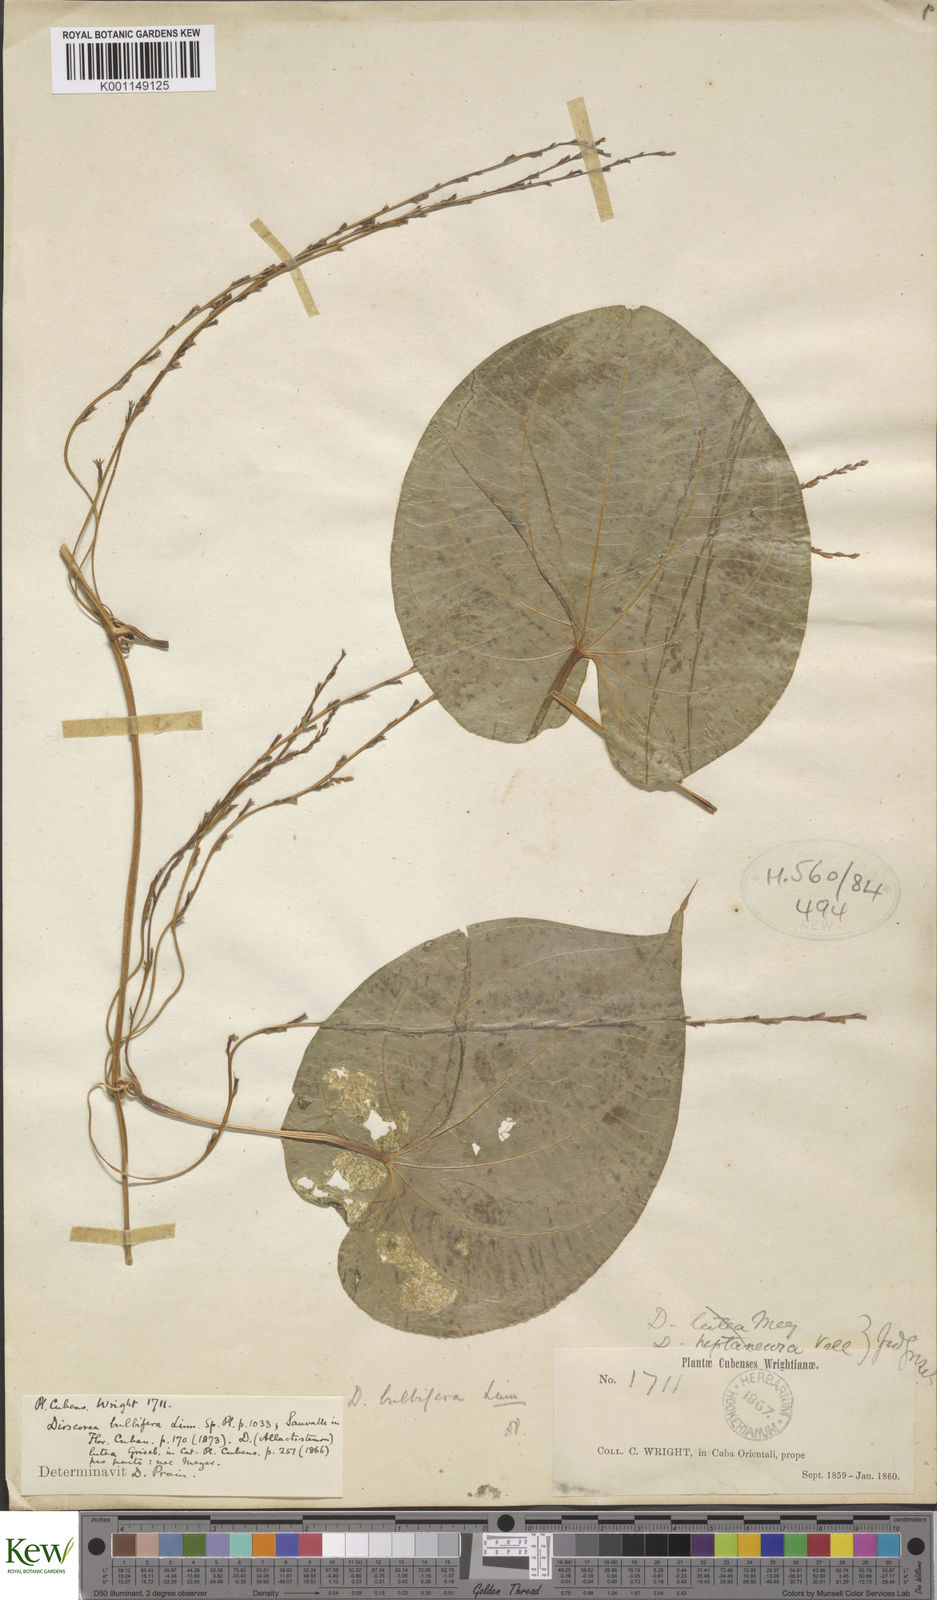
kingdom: Plantae
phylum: Tracheophyta
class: Liliopsida
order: Dioscoreales
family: Dioscoreaceae
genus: Dioscorea
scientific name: Dioscorea bulbifera
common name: Air yam
